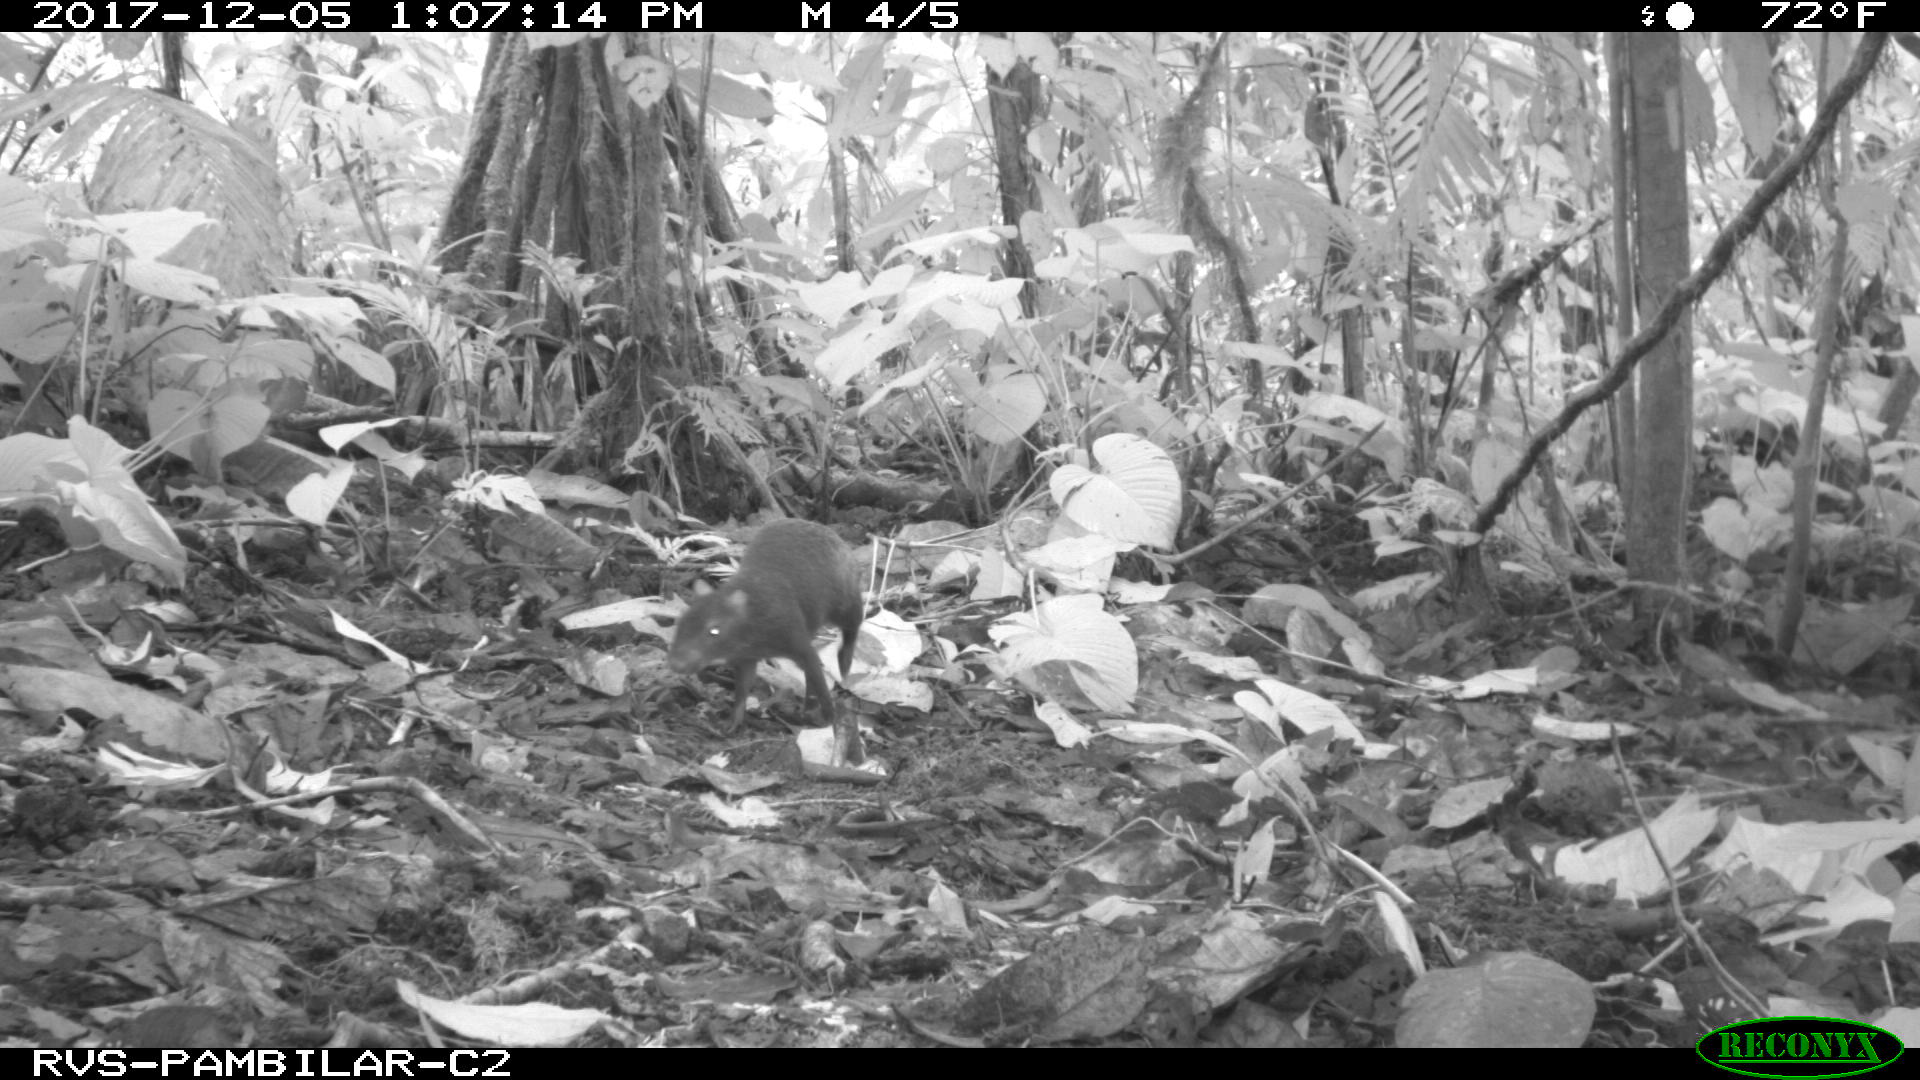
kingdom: Animalia
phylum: Chordata
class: Mammalia
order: Rodentia
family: Dasyproctidae
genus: Dasyprocta
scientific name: Dasyprocta punctata
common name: Central american agouti
